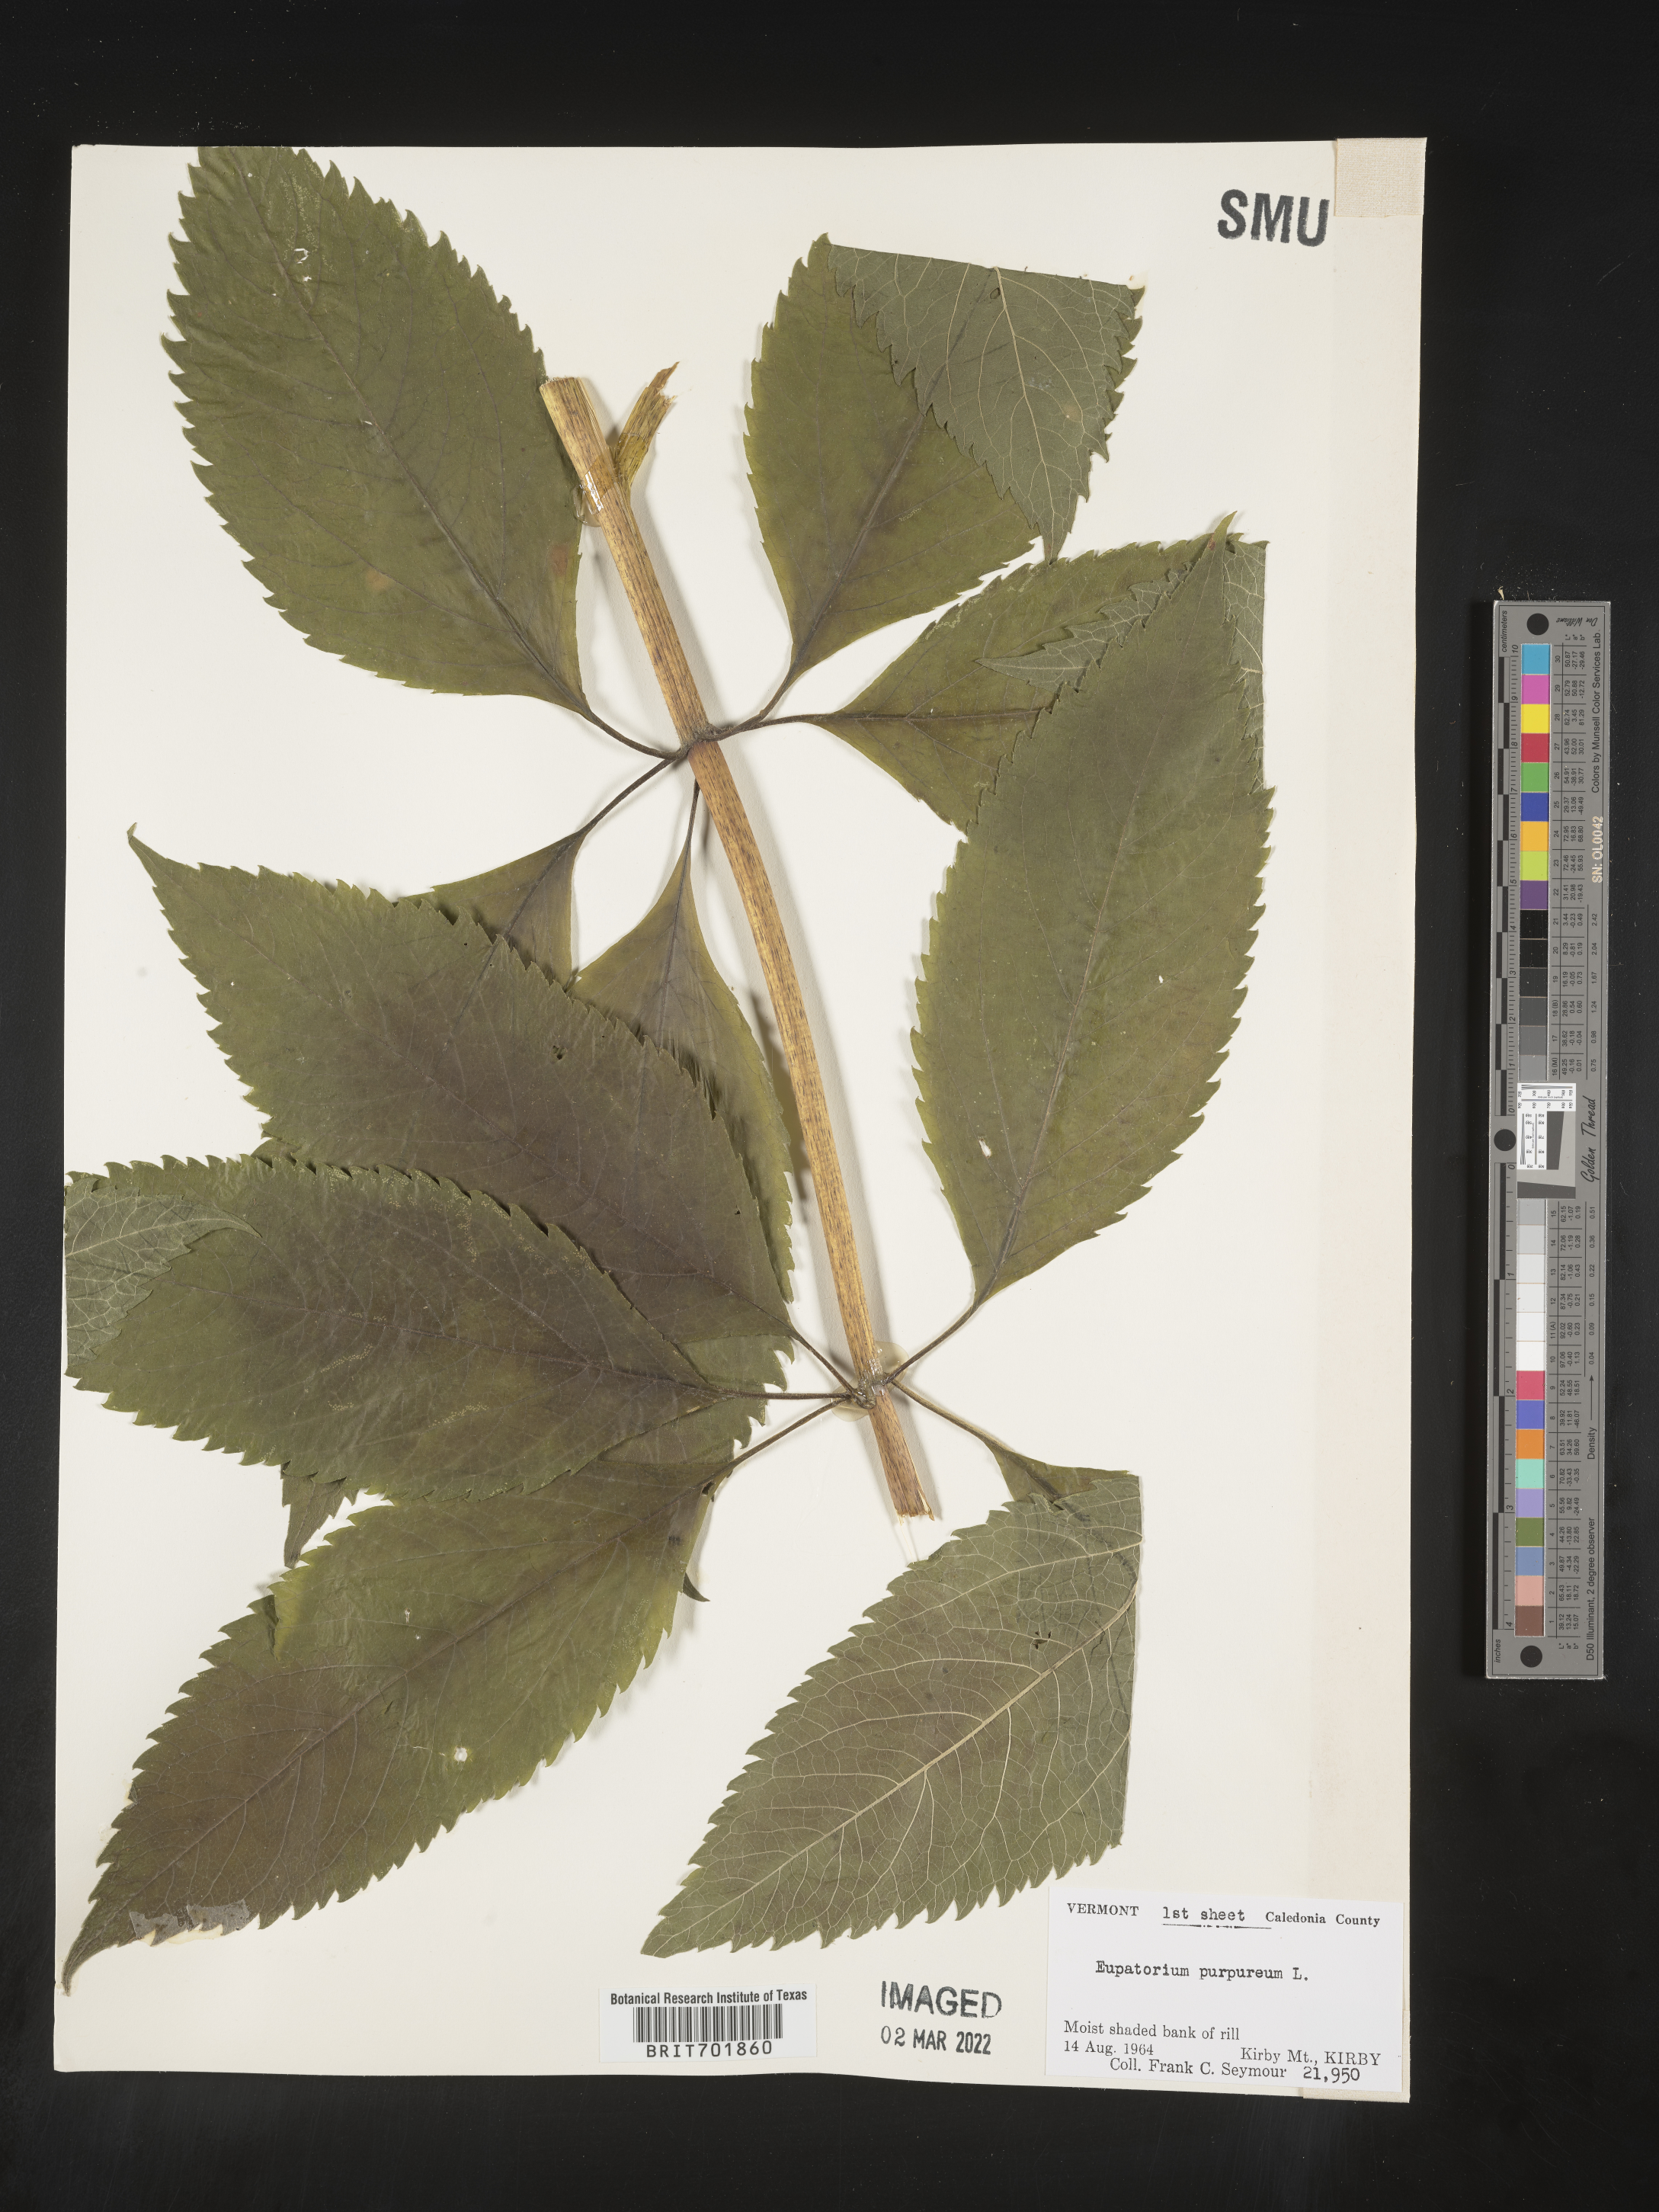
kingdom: Plantae
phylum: Tracheophyta
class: Magnoliopsida
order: Asterales
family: Asteraceae
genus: Eupatorium
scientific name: Eupatorium quaternum
